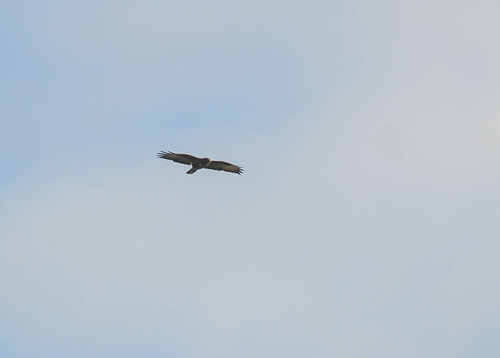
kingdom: Animalia
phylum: Chordata
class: Aves
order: Accipitriformes
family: Accipitridae
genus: Buteo
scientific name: Buteo buteo
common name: Common buzzard
